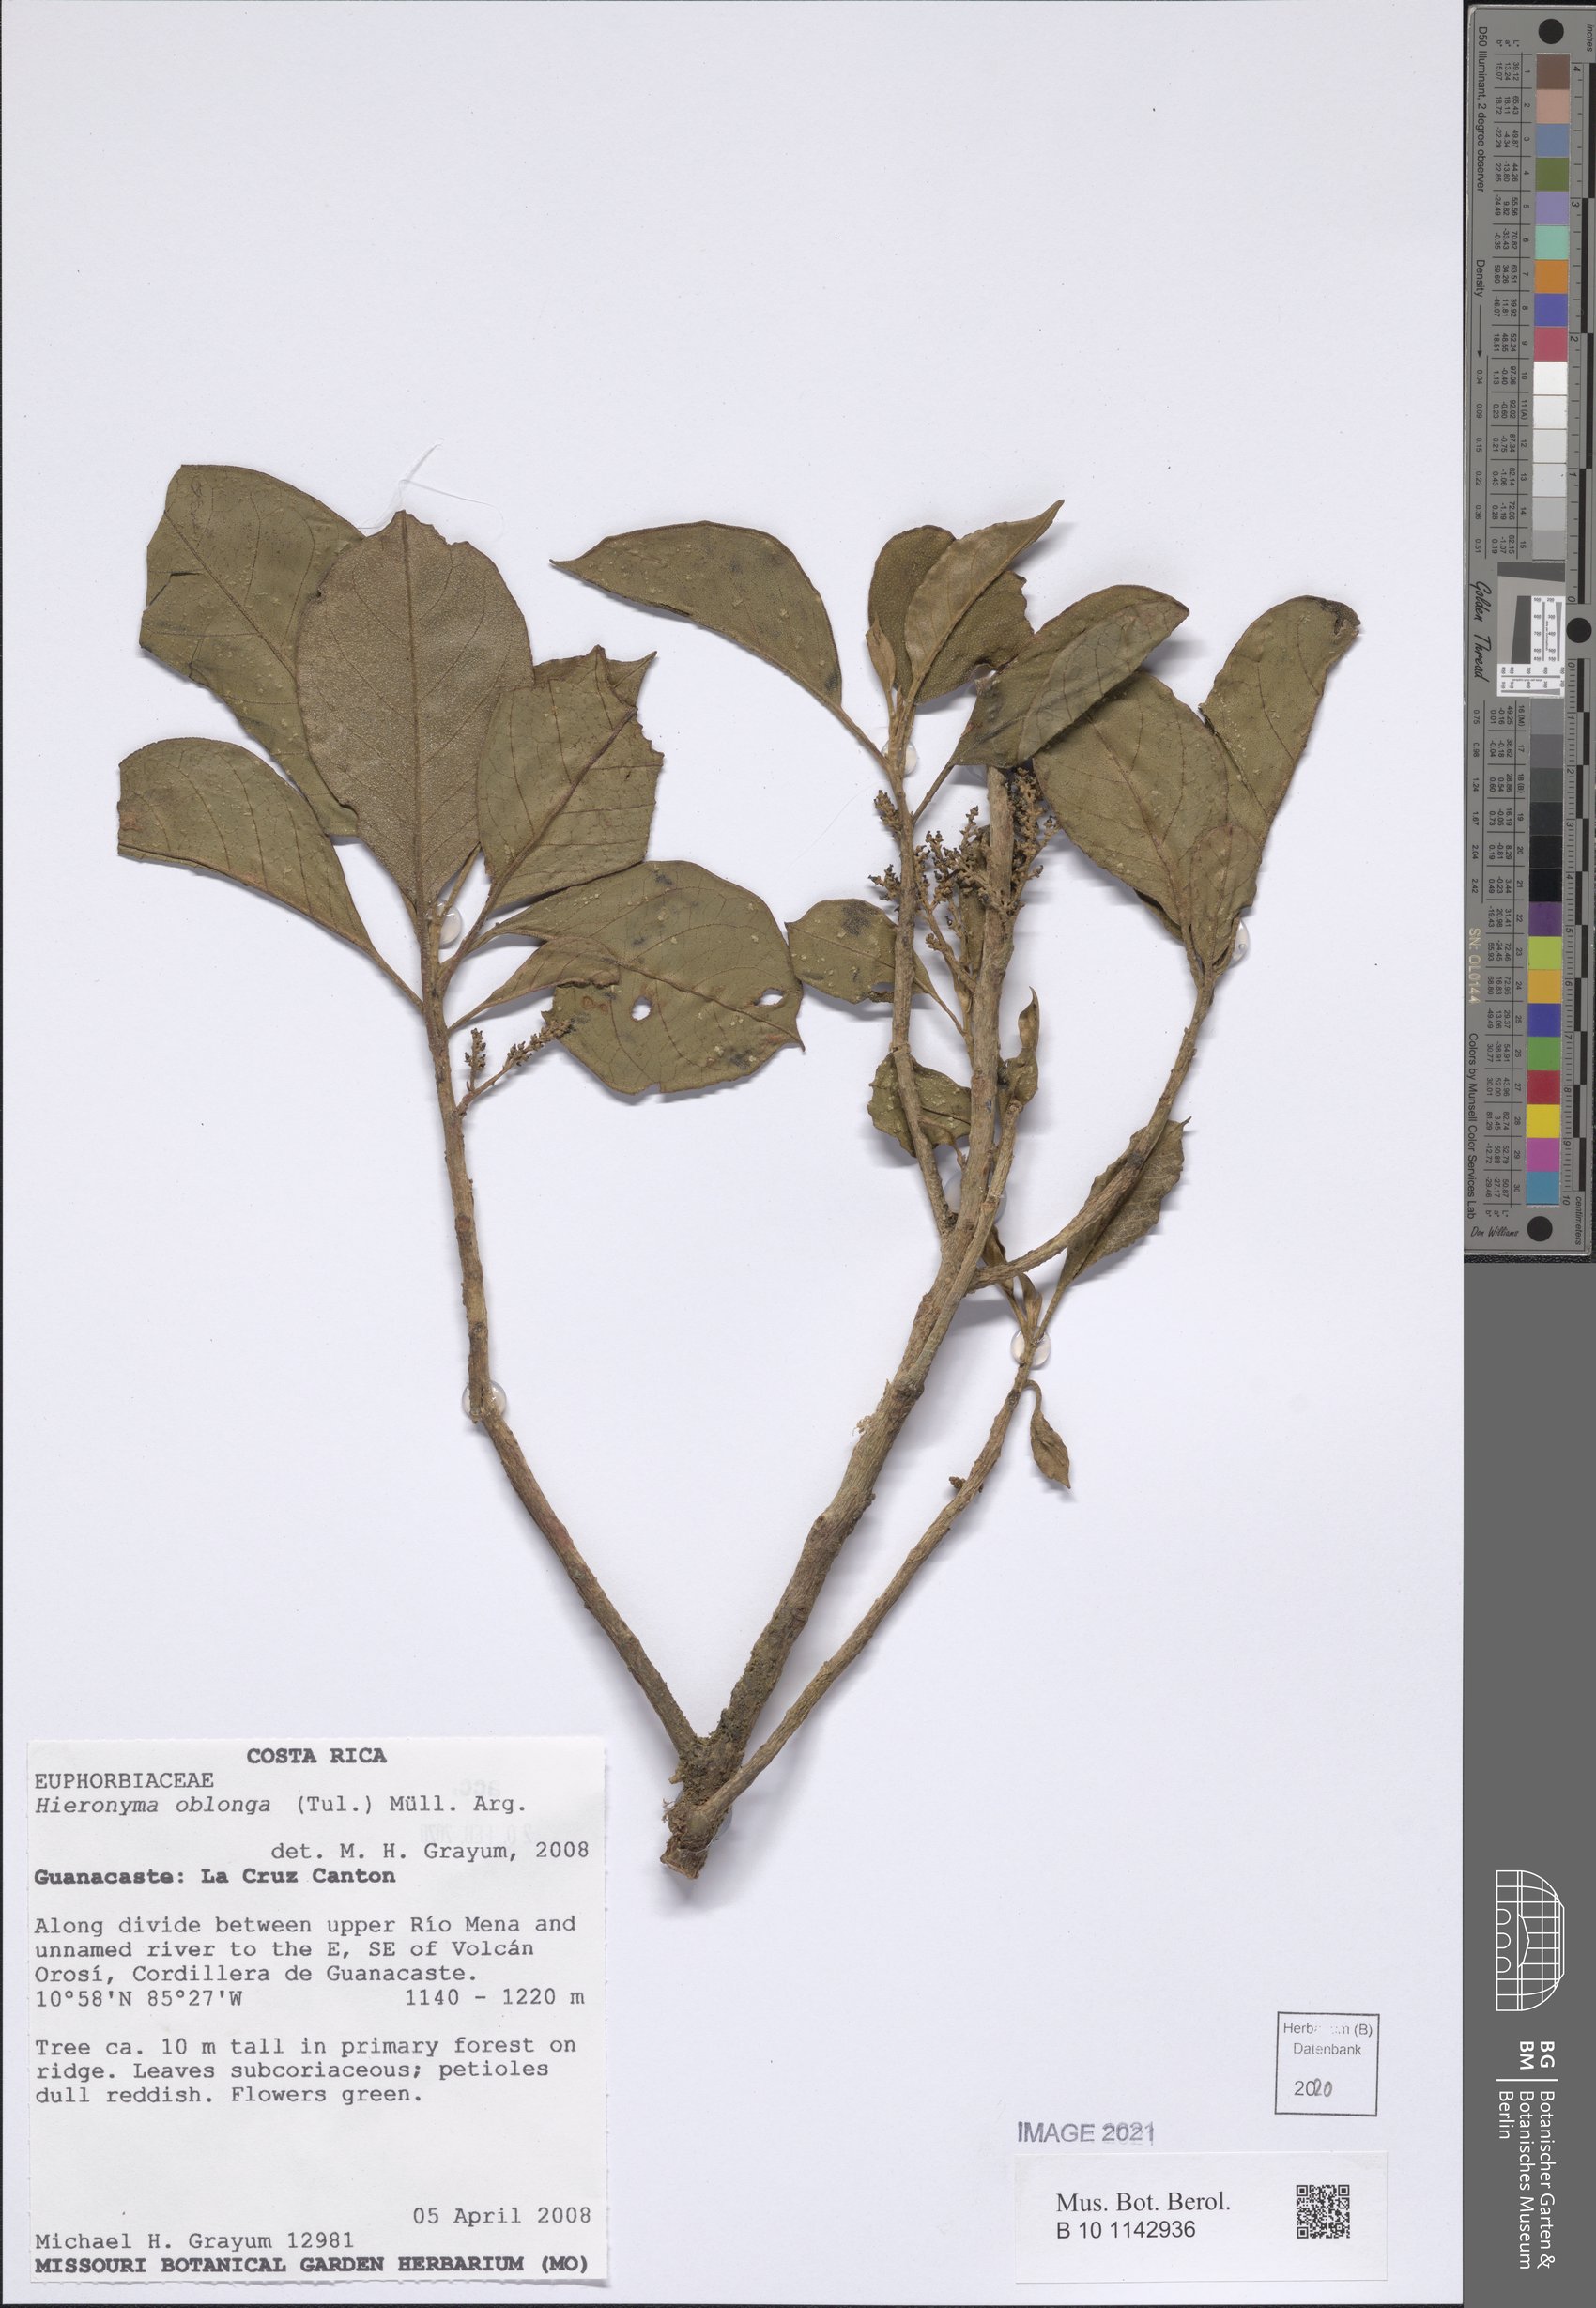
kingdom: Plantae
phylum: Tracheophyta
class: Magnoliopsida
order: Malpighiales
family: Phyllanthaceae
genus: Hieronyma
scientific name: Hieronyma oblonga
